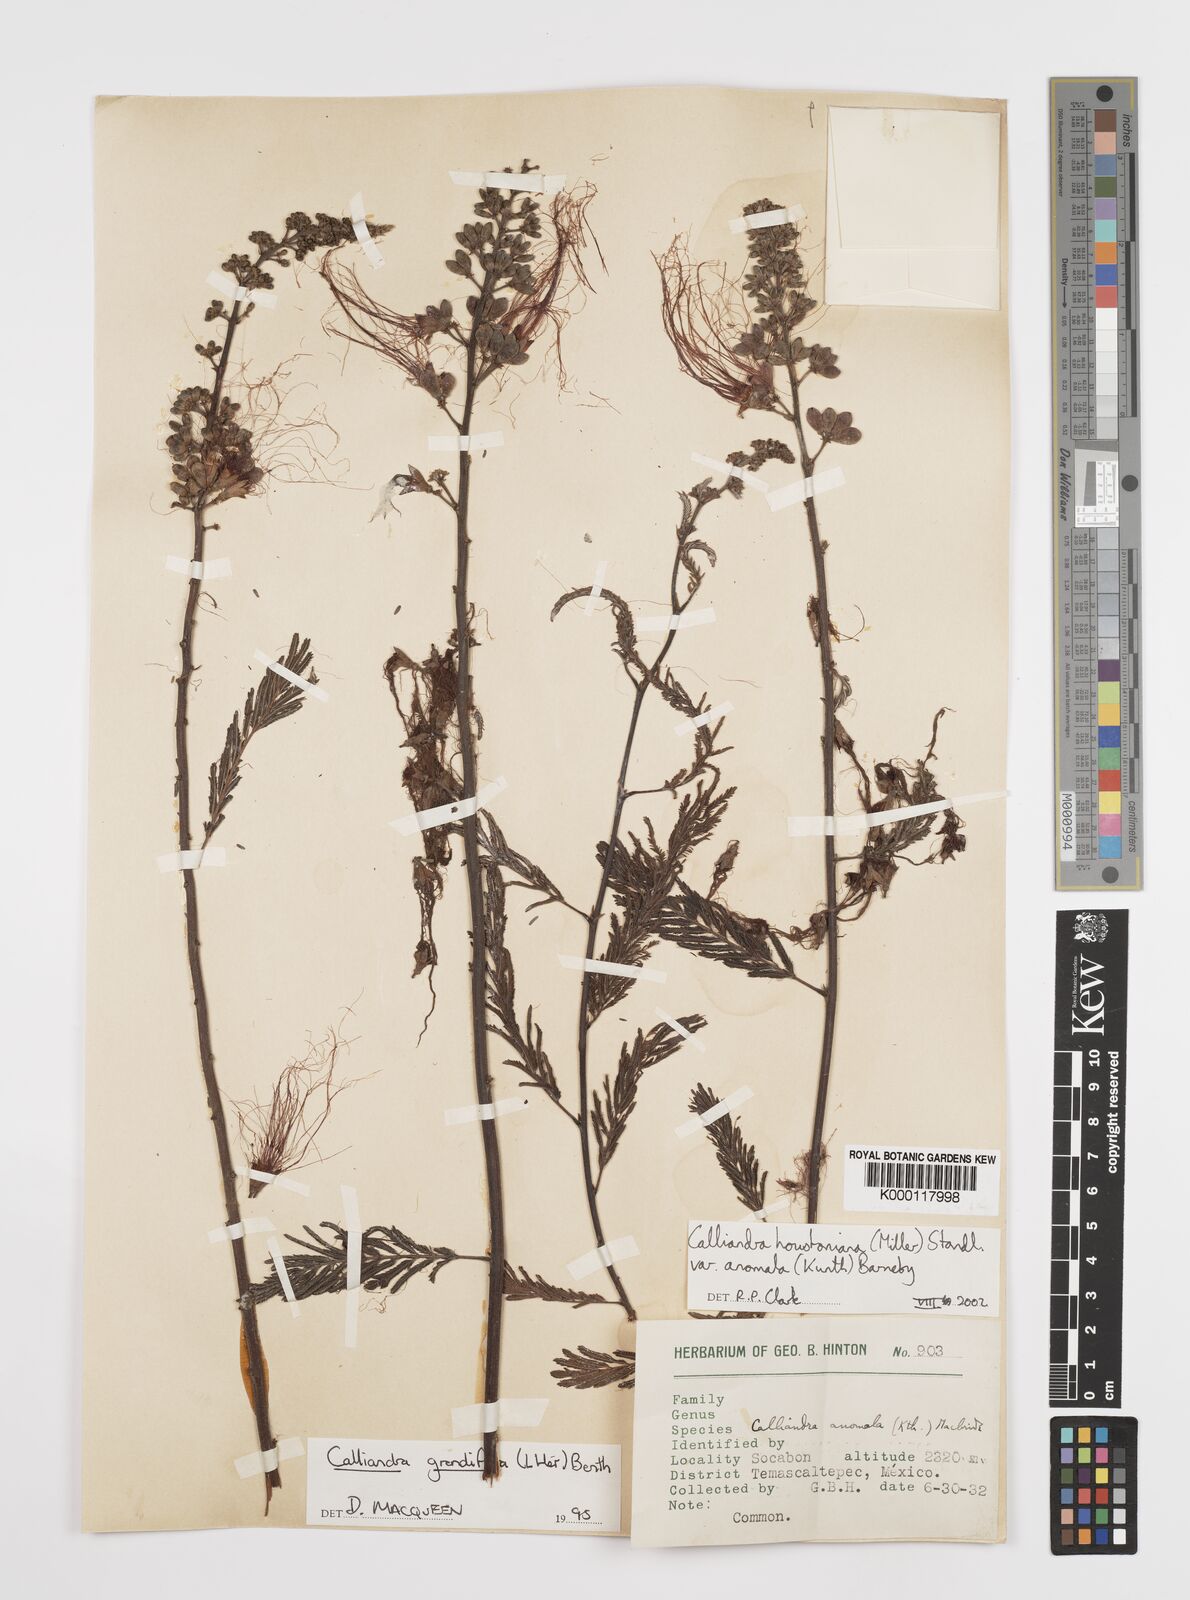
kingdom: Plantae
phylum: Tracheophyta
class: Magnoliopsida
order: Fabales
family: Fabaceae
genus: Calliandra
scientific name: Calliandra houstoniana
